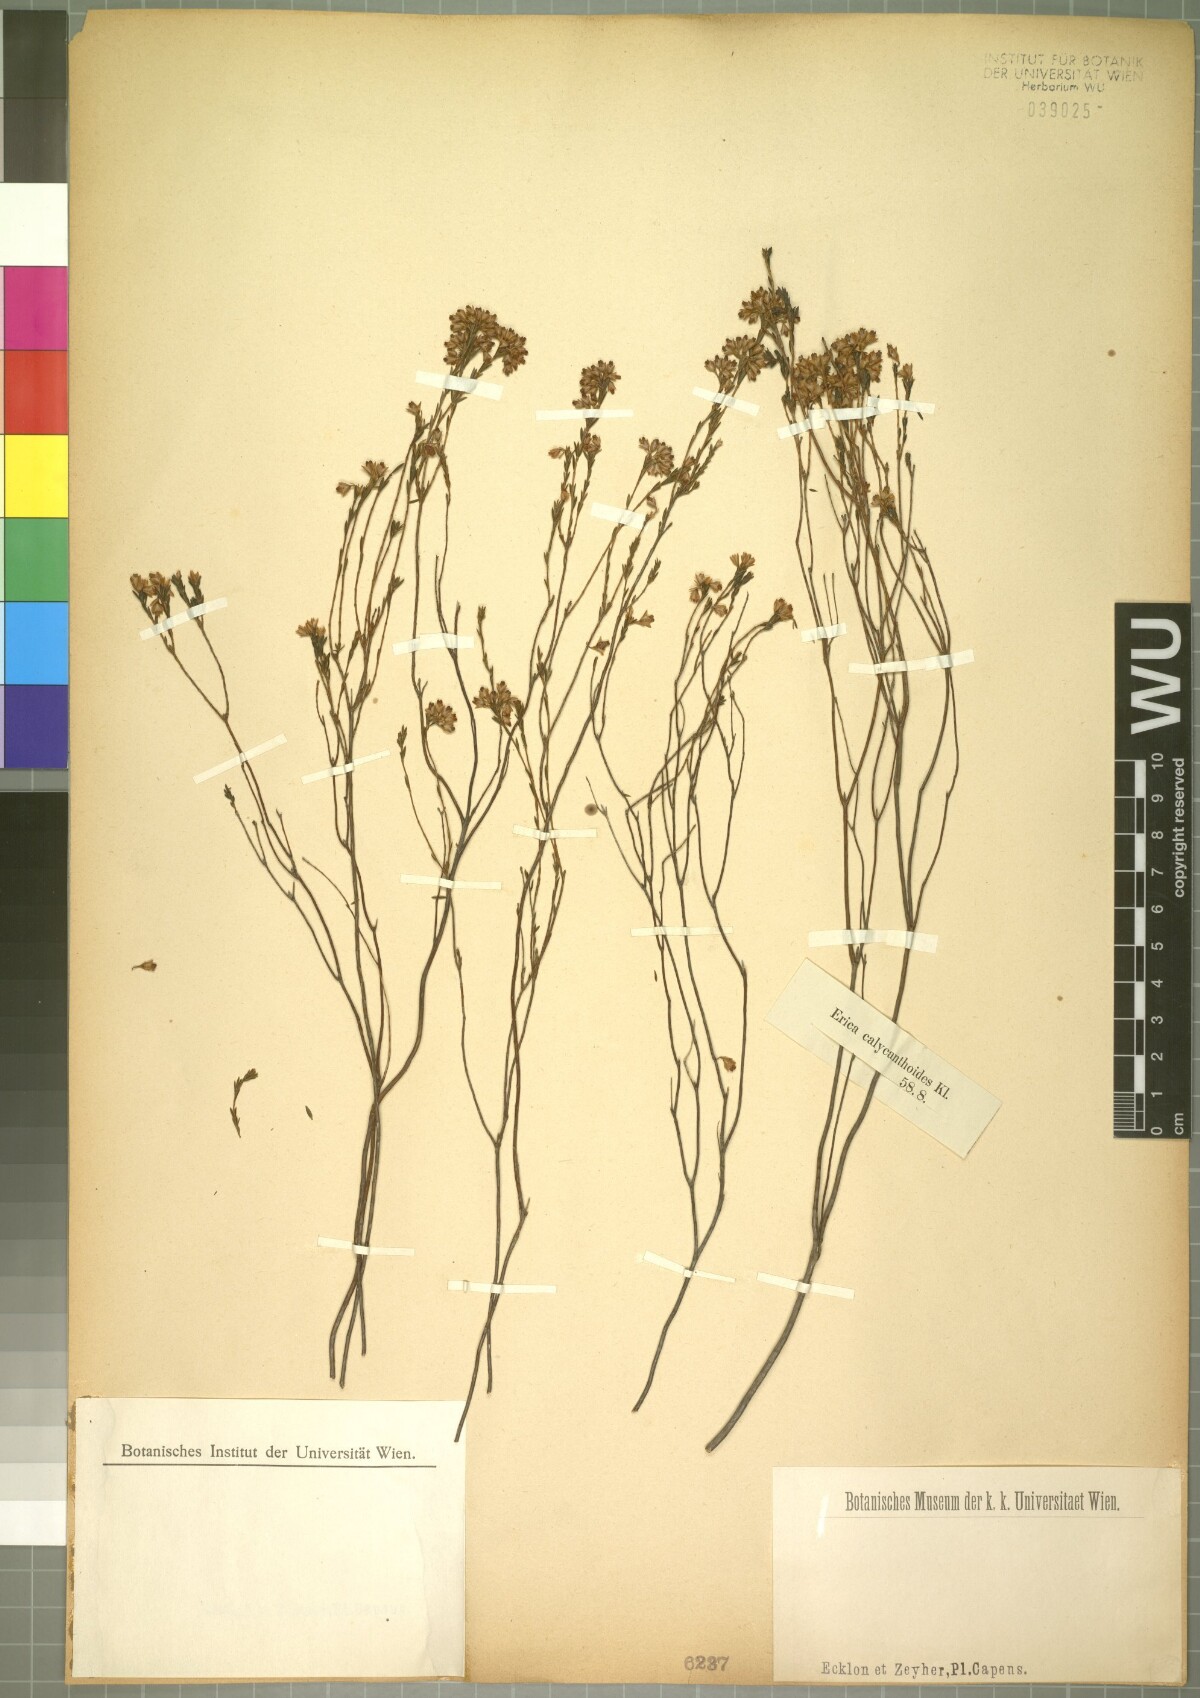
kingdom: Plantae
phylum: Tracheophyta
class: Magnoliopsida
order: Ericales
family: Ericaceae
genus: Erica
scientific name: Erica corifolia
